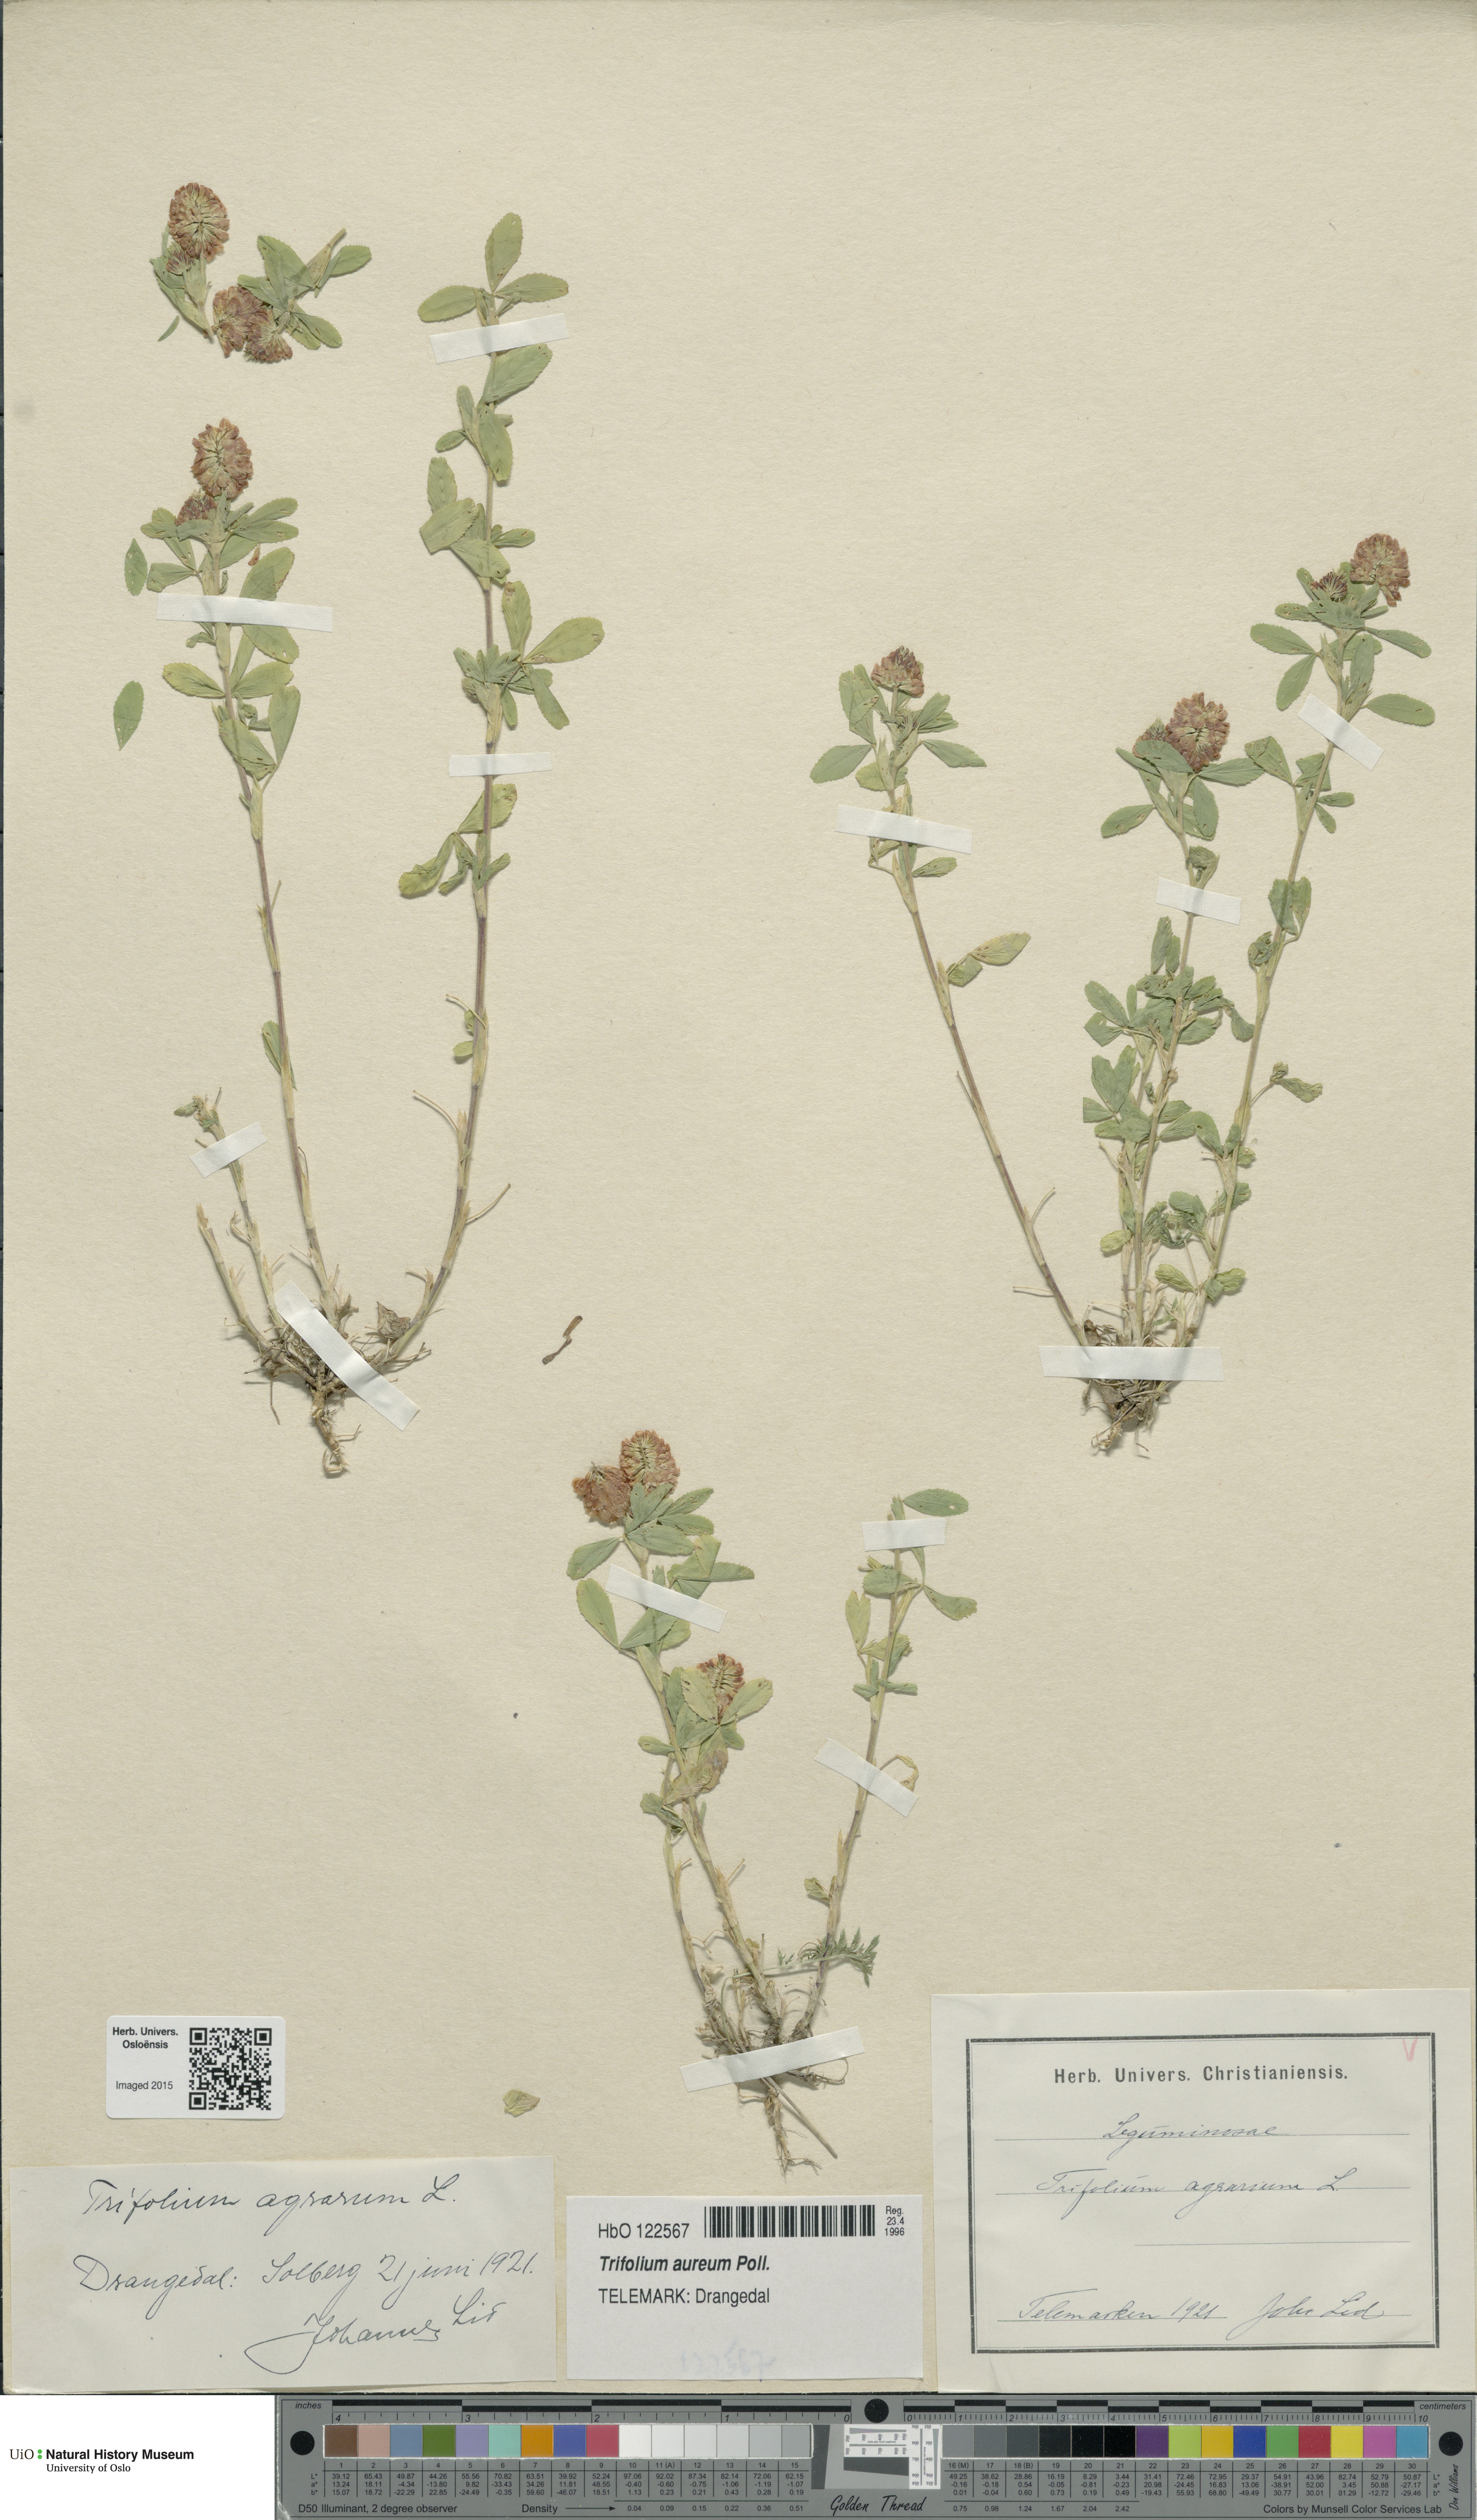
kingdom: Plantae
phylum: Tracheophyta
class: Magnoliopsida
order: Fabales
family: Fabaceae
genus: Trifolium
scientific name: Trifolium aureum
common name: Golden clover
